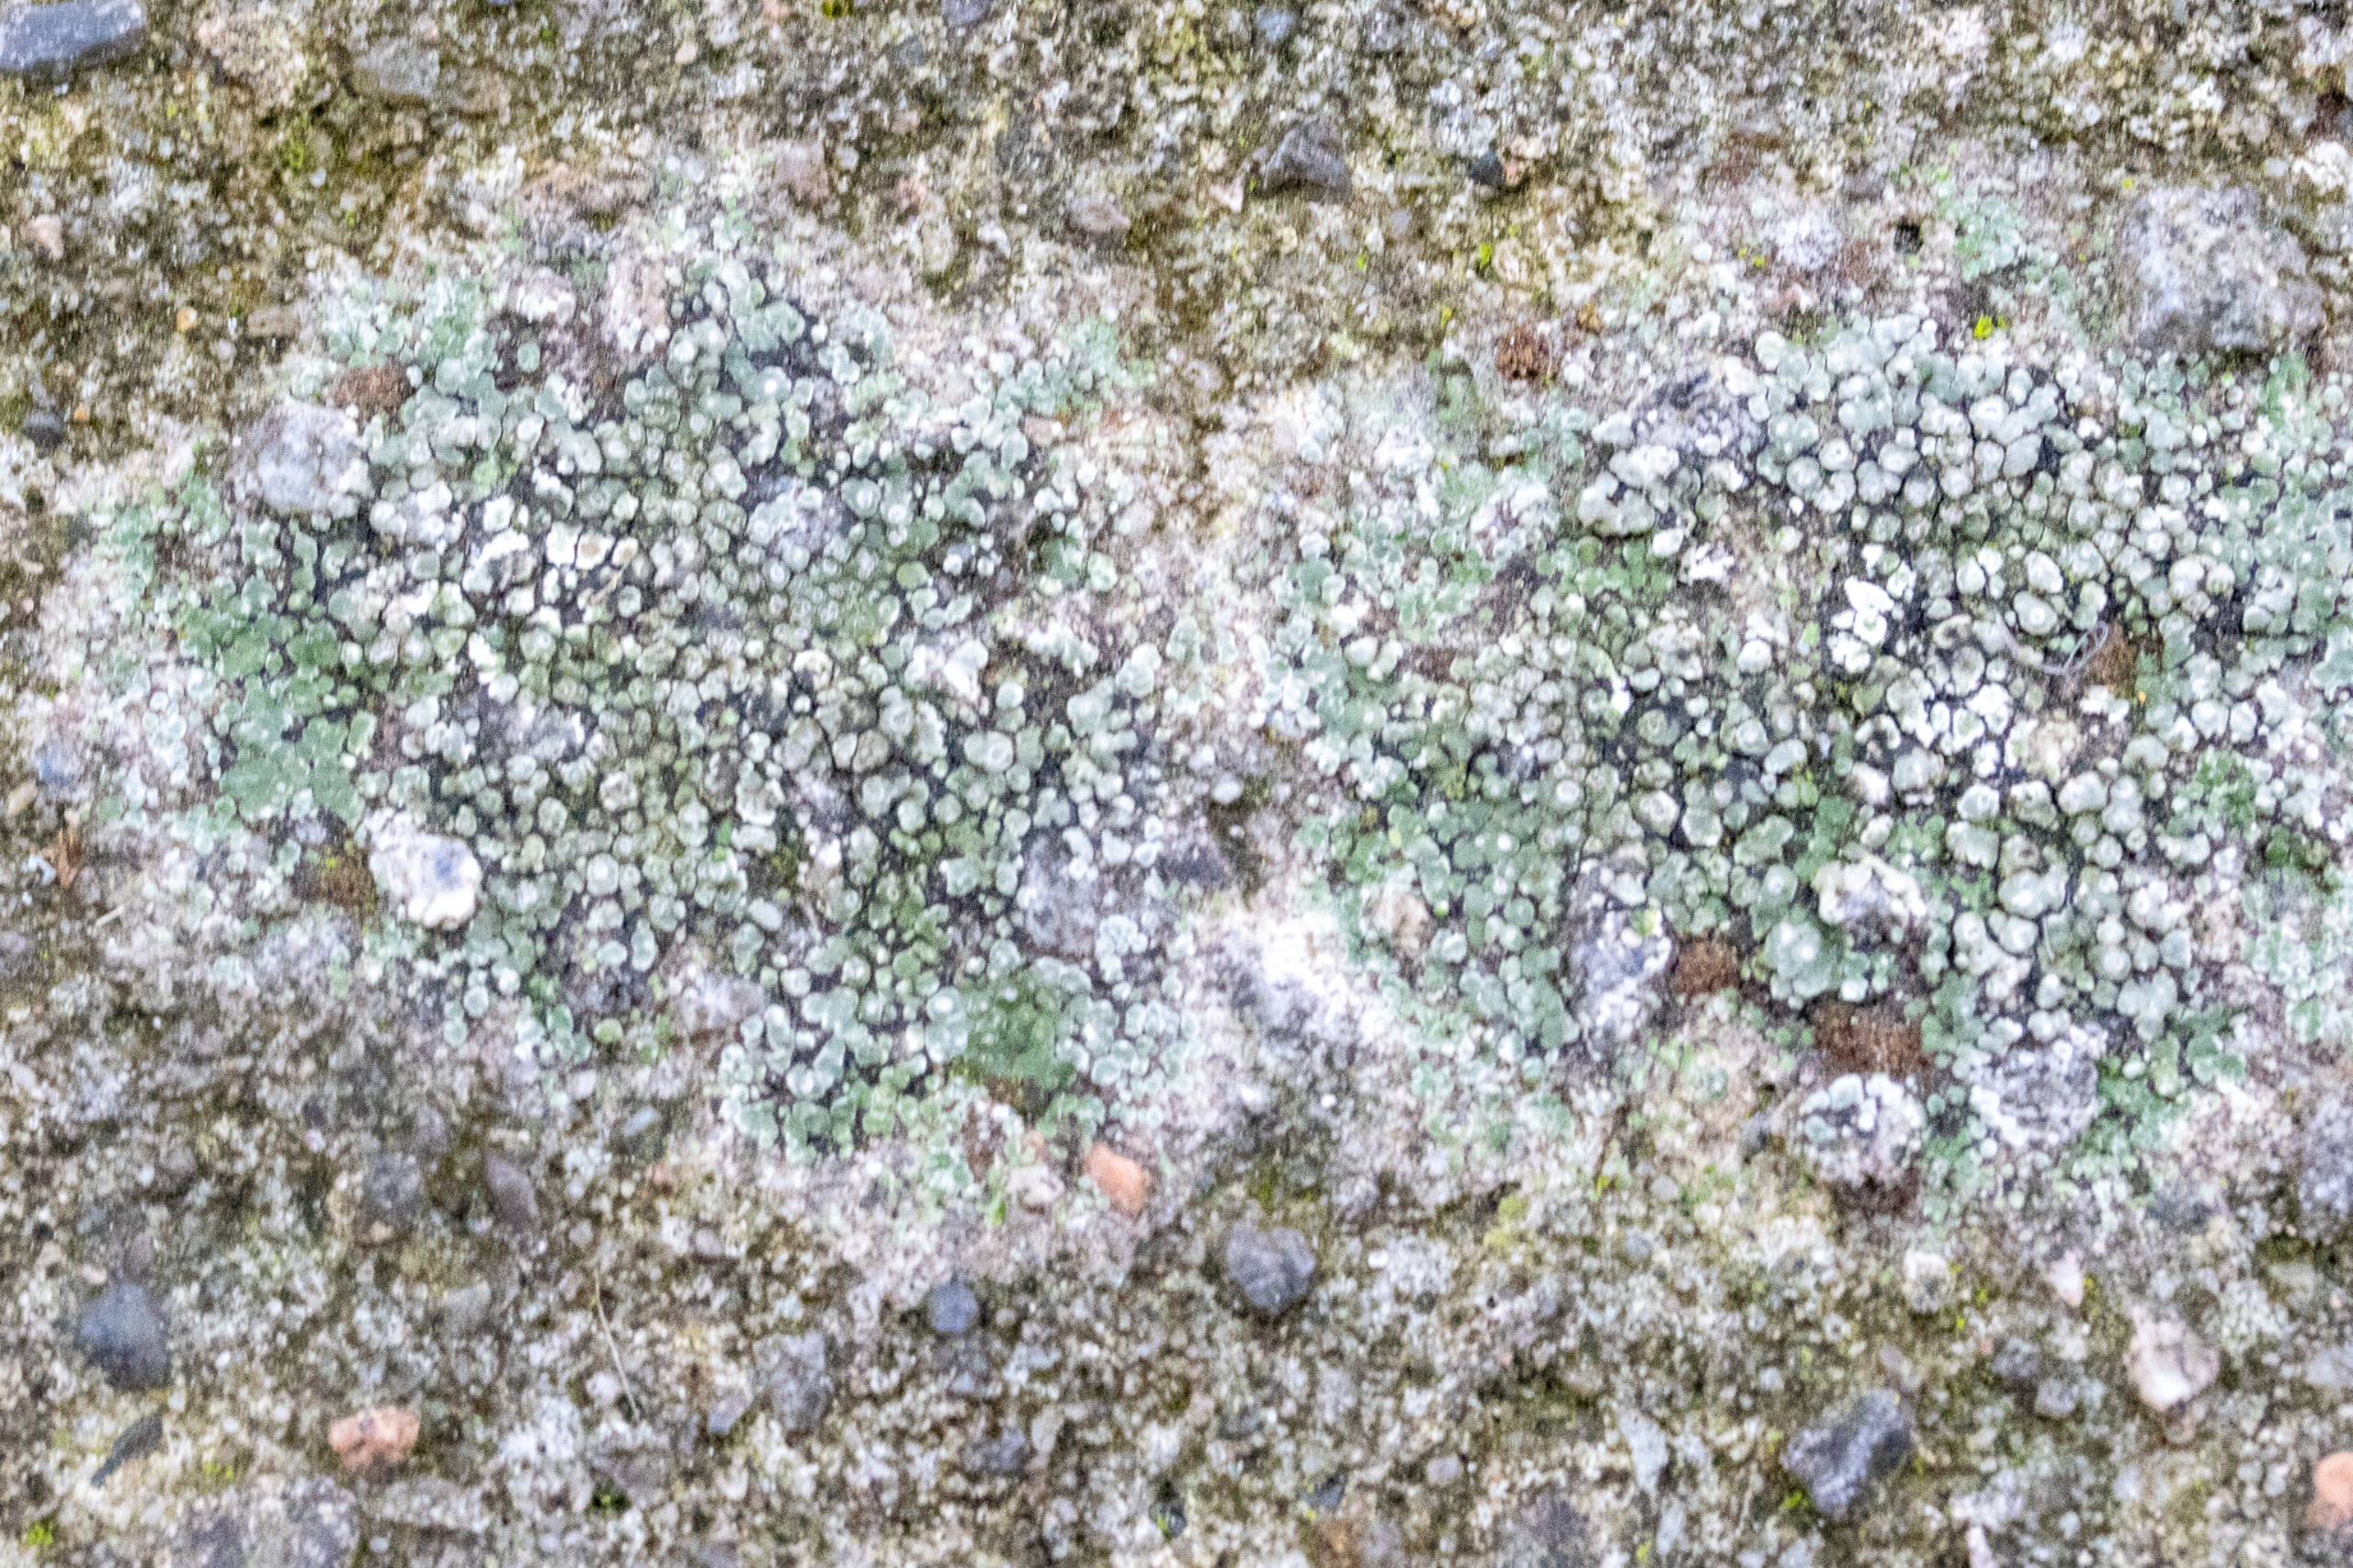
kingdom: Fungi
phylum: Ascomycota
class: Lecanoromycetes
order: Pertusariales
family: Megasporaceae
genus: Circinaria
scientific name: Circinaria contorta
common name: Indviklet hulskivelav
